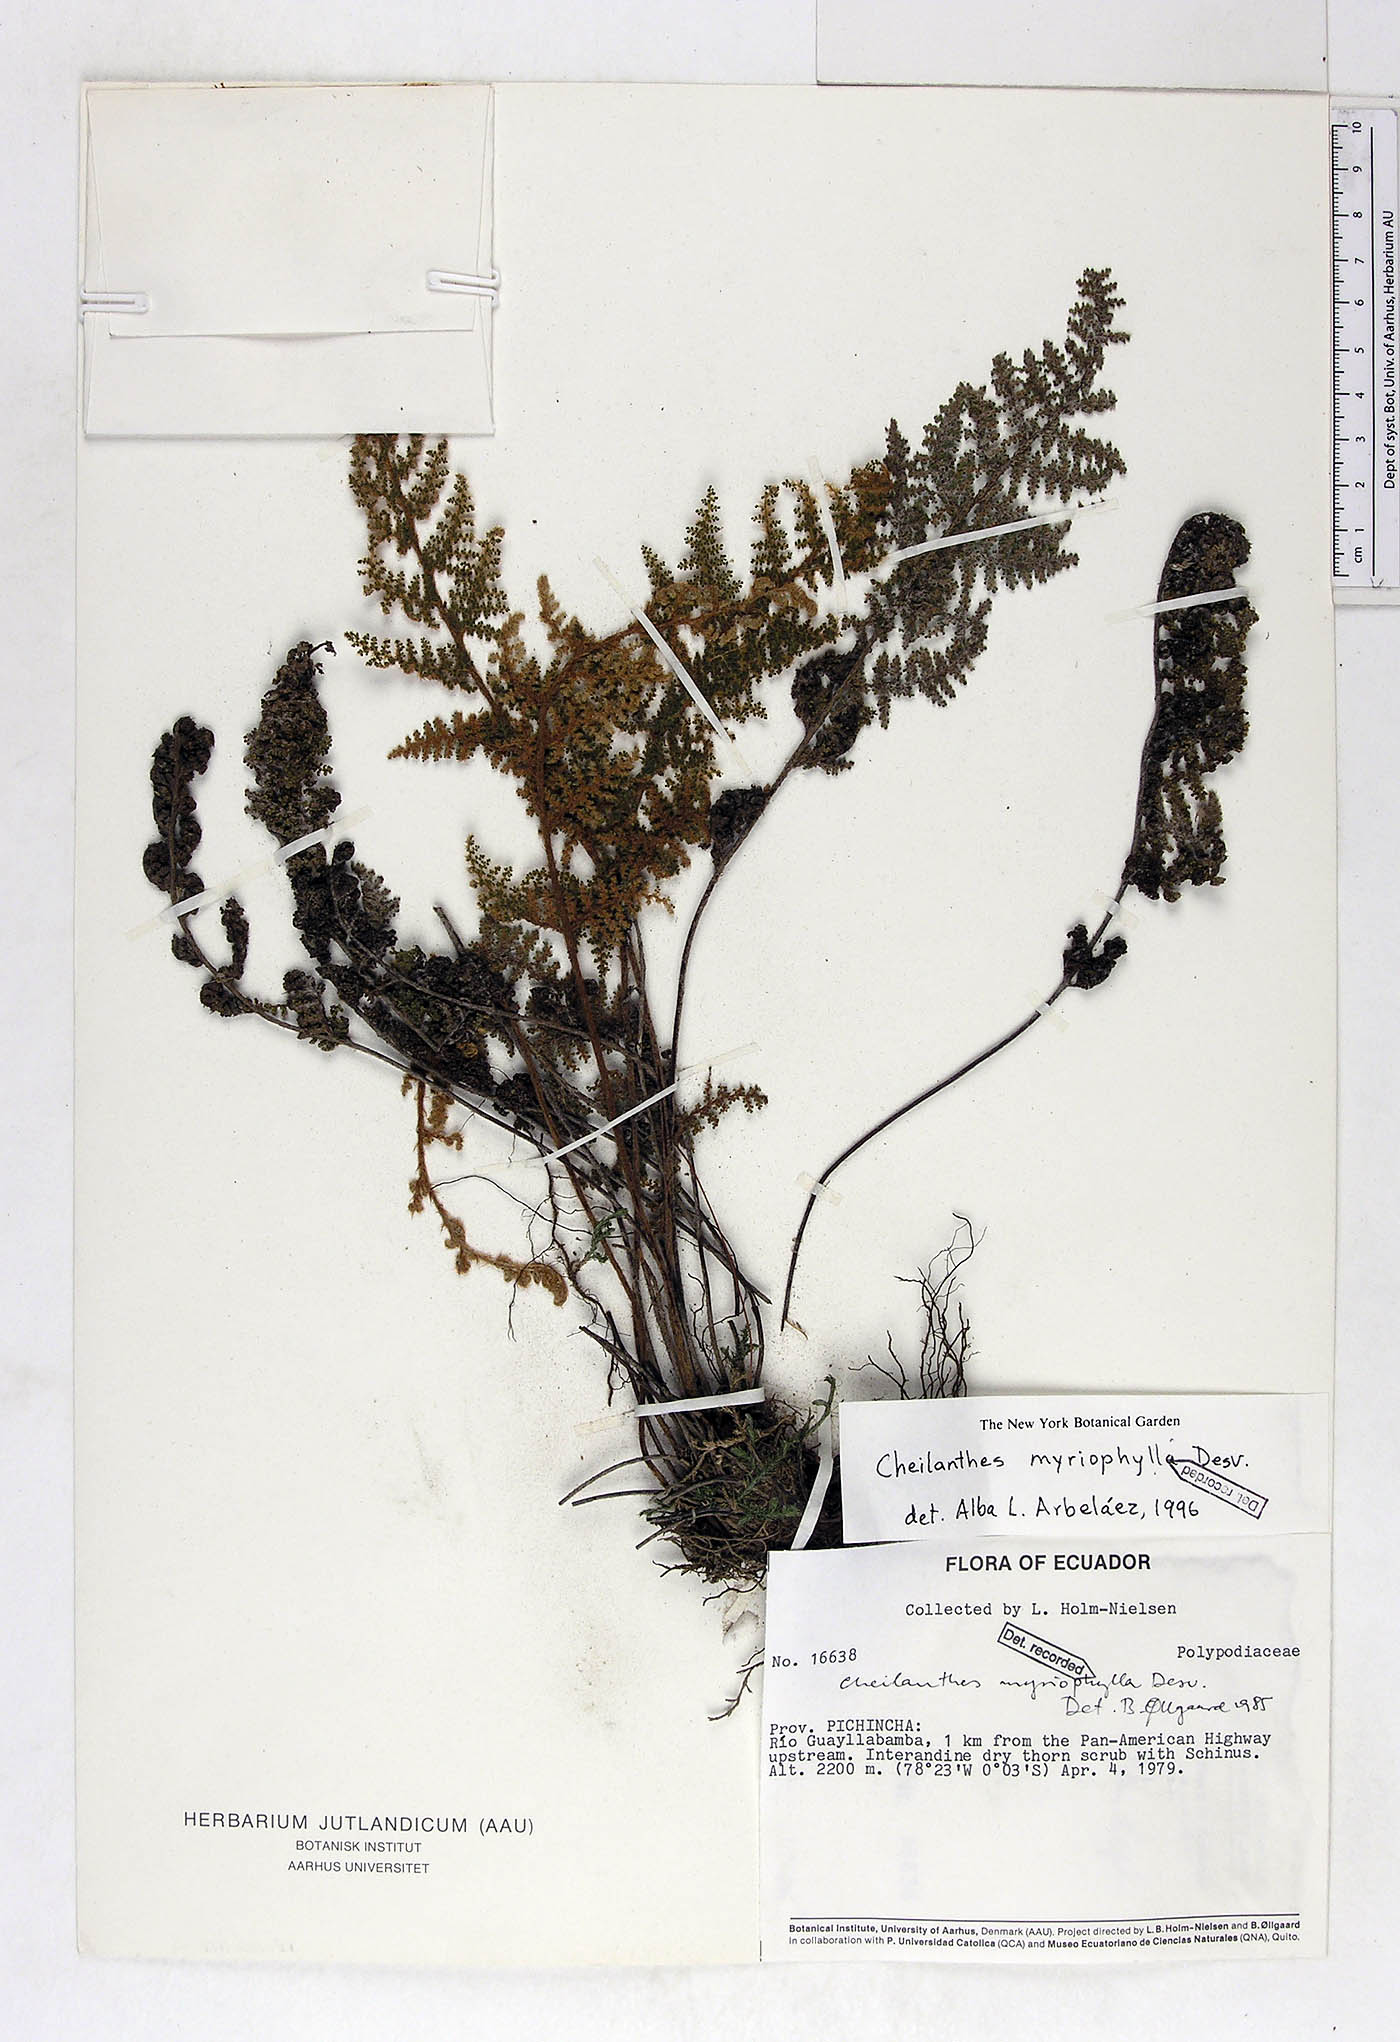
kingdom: Plantae
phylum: Tracheophyta
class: Polypodiopsida
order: Polypodiales
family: Pteridaceae
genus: Myriopteris
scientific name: Myriopteris myriophylla
